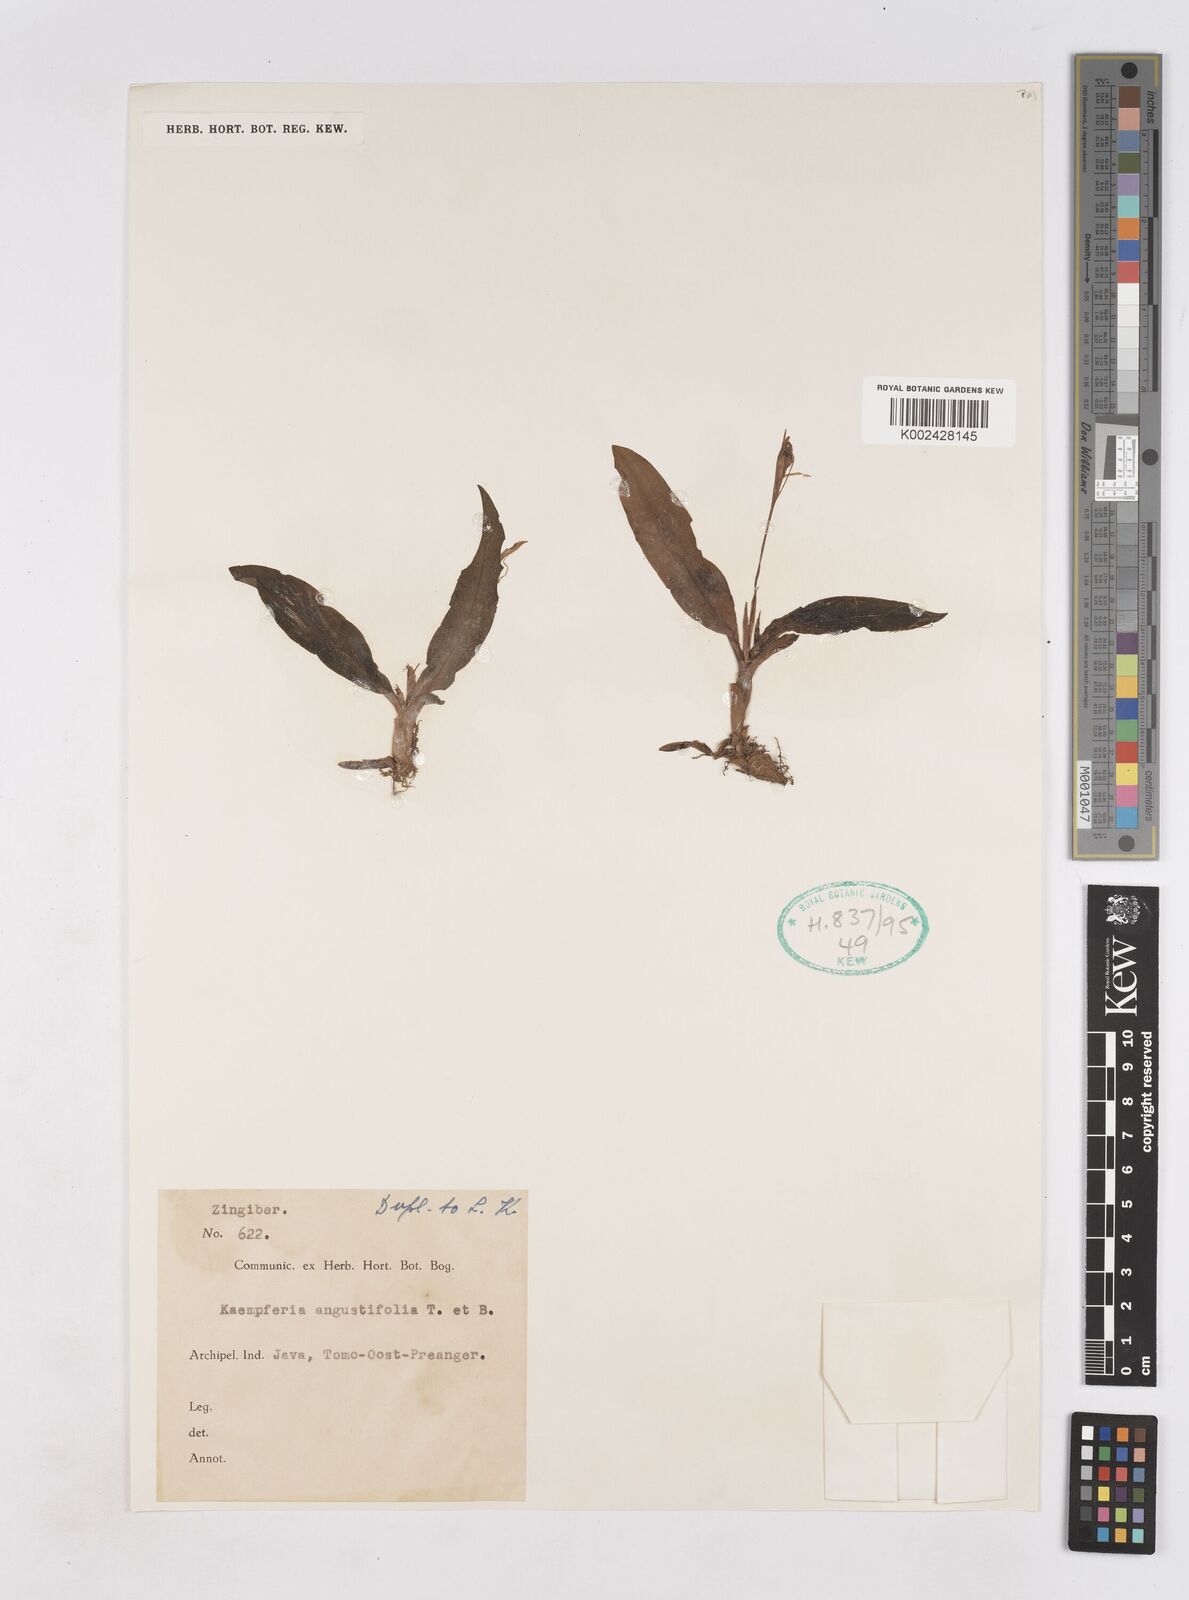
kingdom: Plantae
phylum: Tracheophyta
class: Liliopsida
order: Zingiberales
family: Zingiberaceae
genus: Kaempferia
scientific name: Kaempferia
